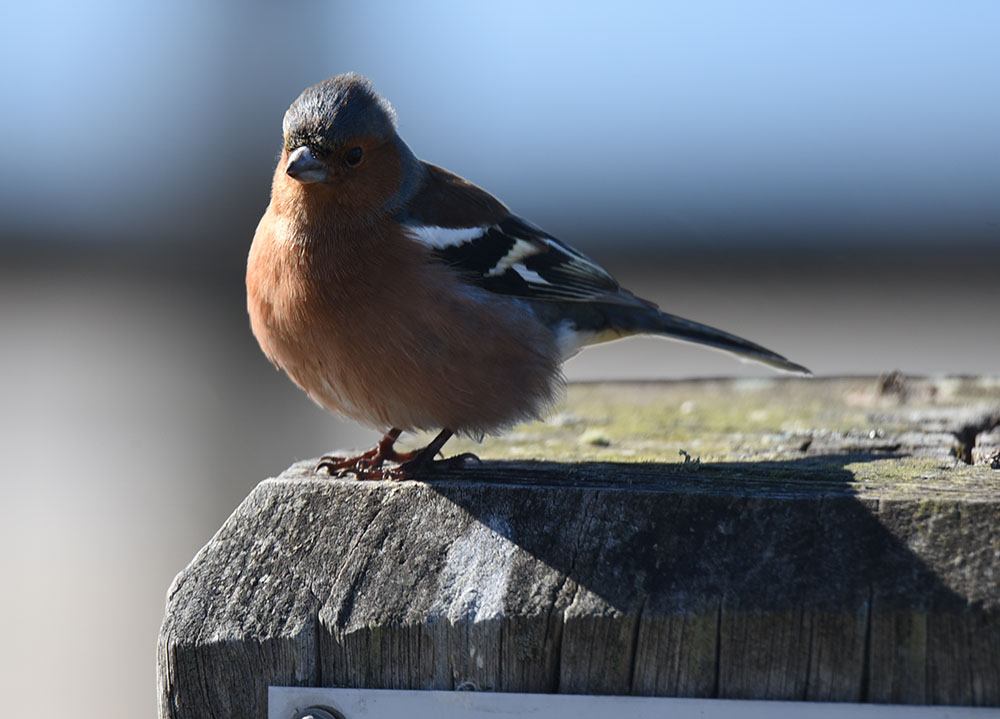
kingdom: Animalia
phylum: Chordata
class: Aves
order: Passeriformes
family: Fringillidae
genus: Fringilla
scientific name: Fringilla coelebs
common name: Common chaffinch
